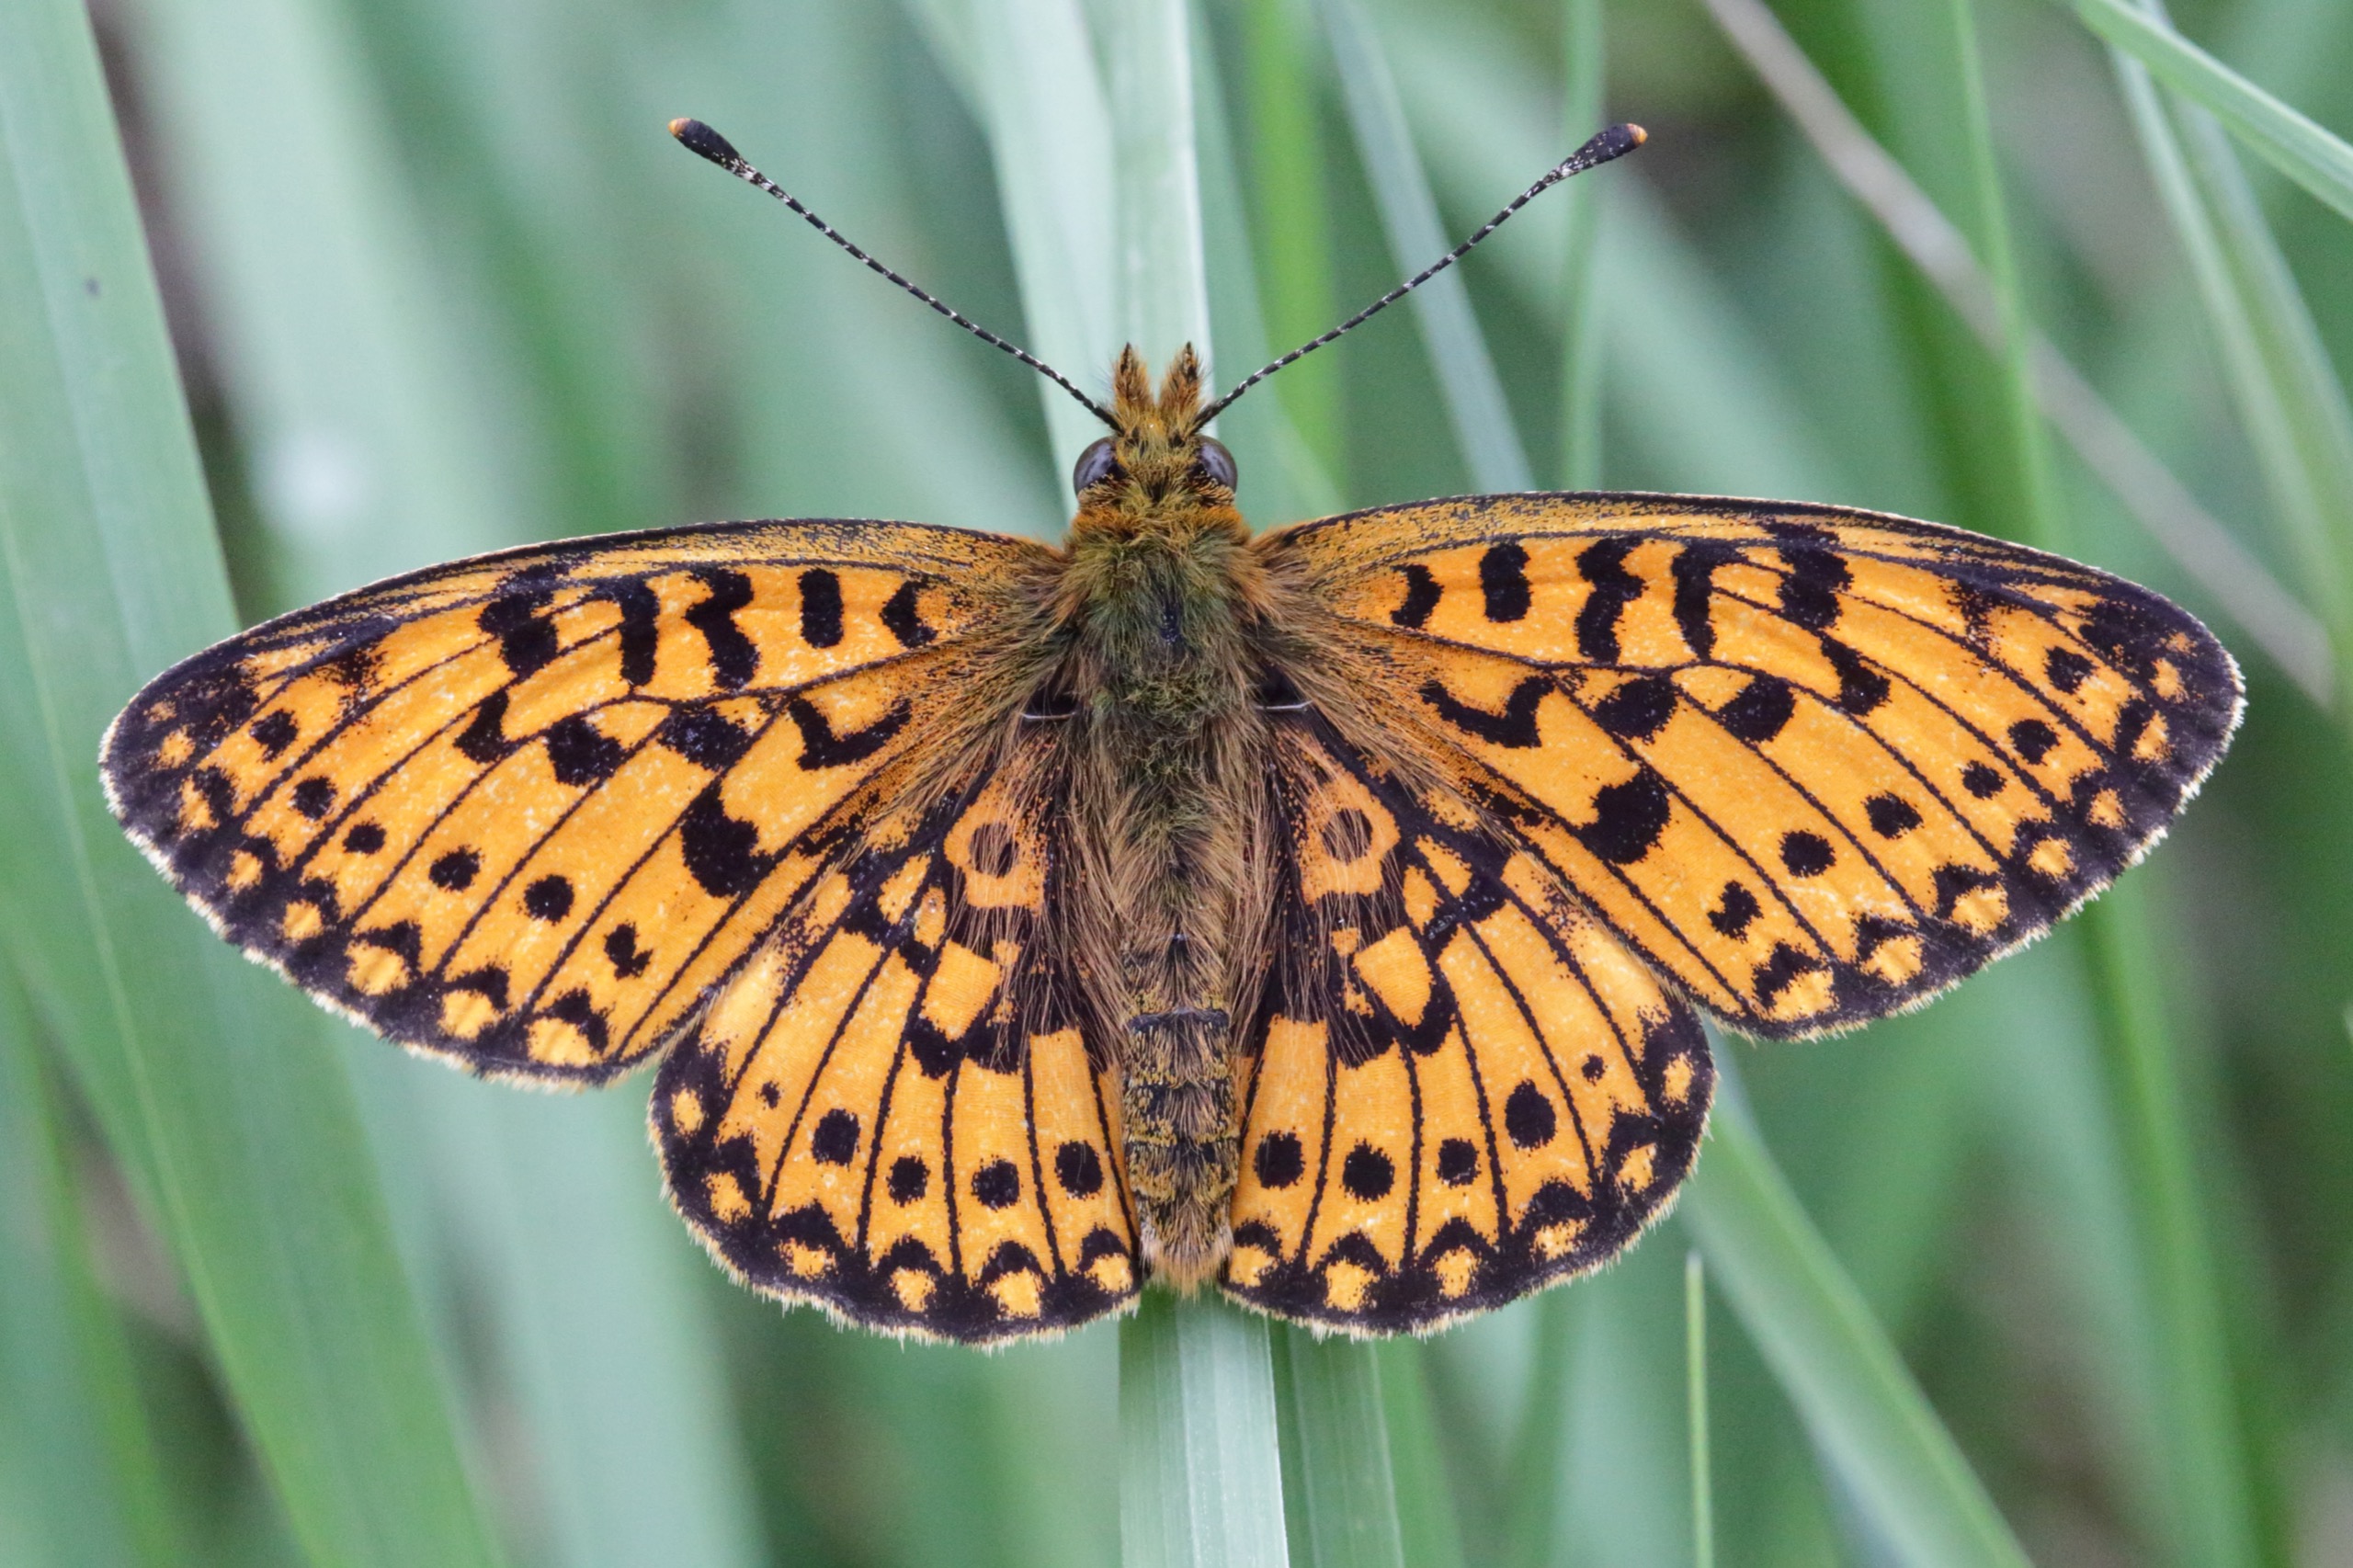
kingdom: Animalia
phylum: Arthropoda
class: Insecta
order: Lepidoptera
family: Nymphalidae
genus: Boloria
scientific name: Boloria selene
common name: Brunlig perlemorsommerfugl
